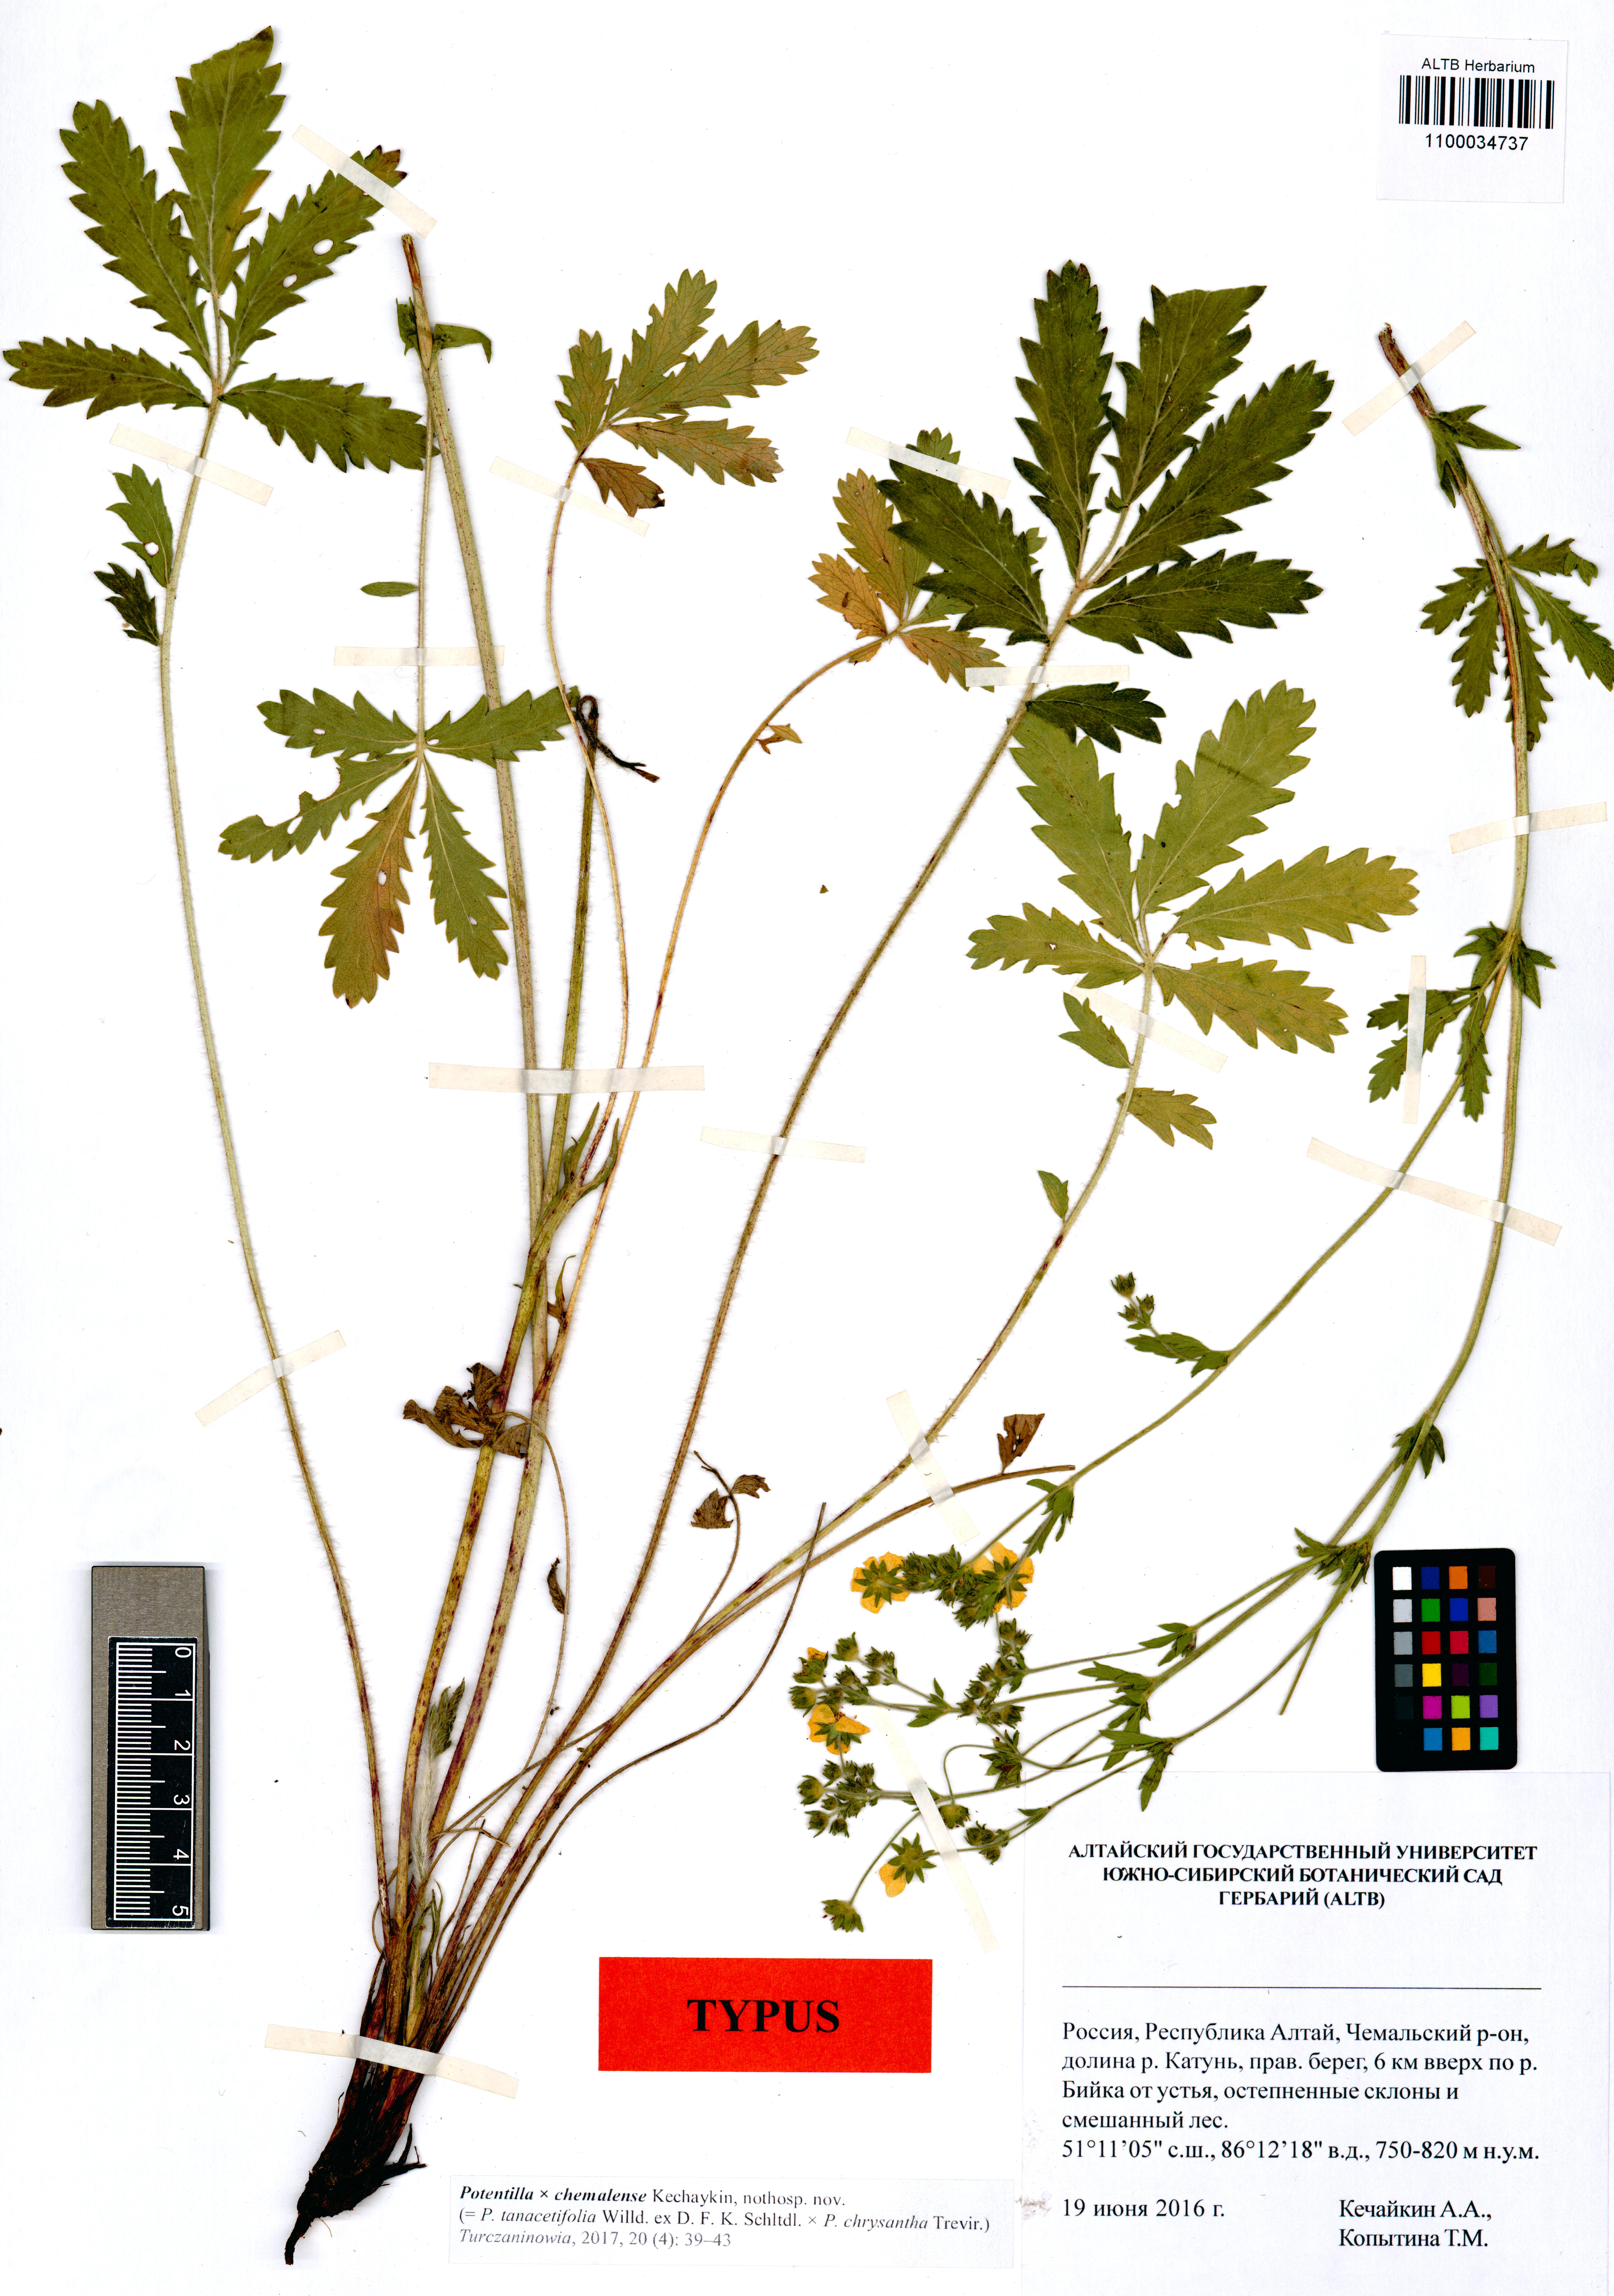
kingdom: Plantae
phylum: Tracheophyta
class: Magnoliopsida
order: Rosales
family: Rosaceae
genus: Potentilla
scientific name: Potentilla chemalensis
